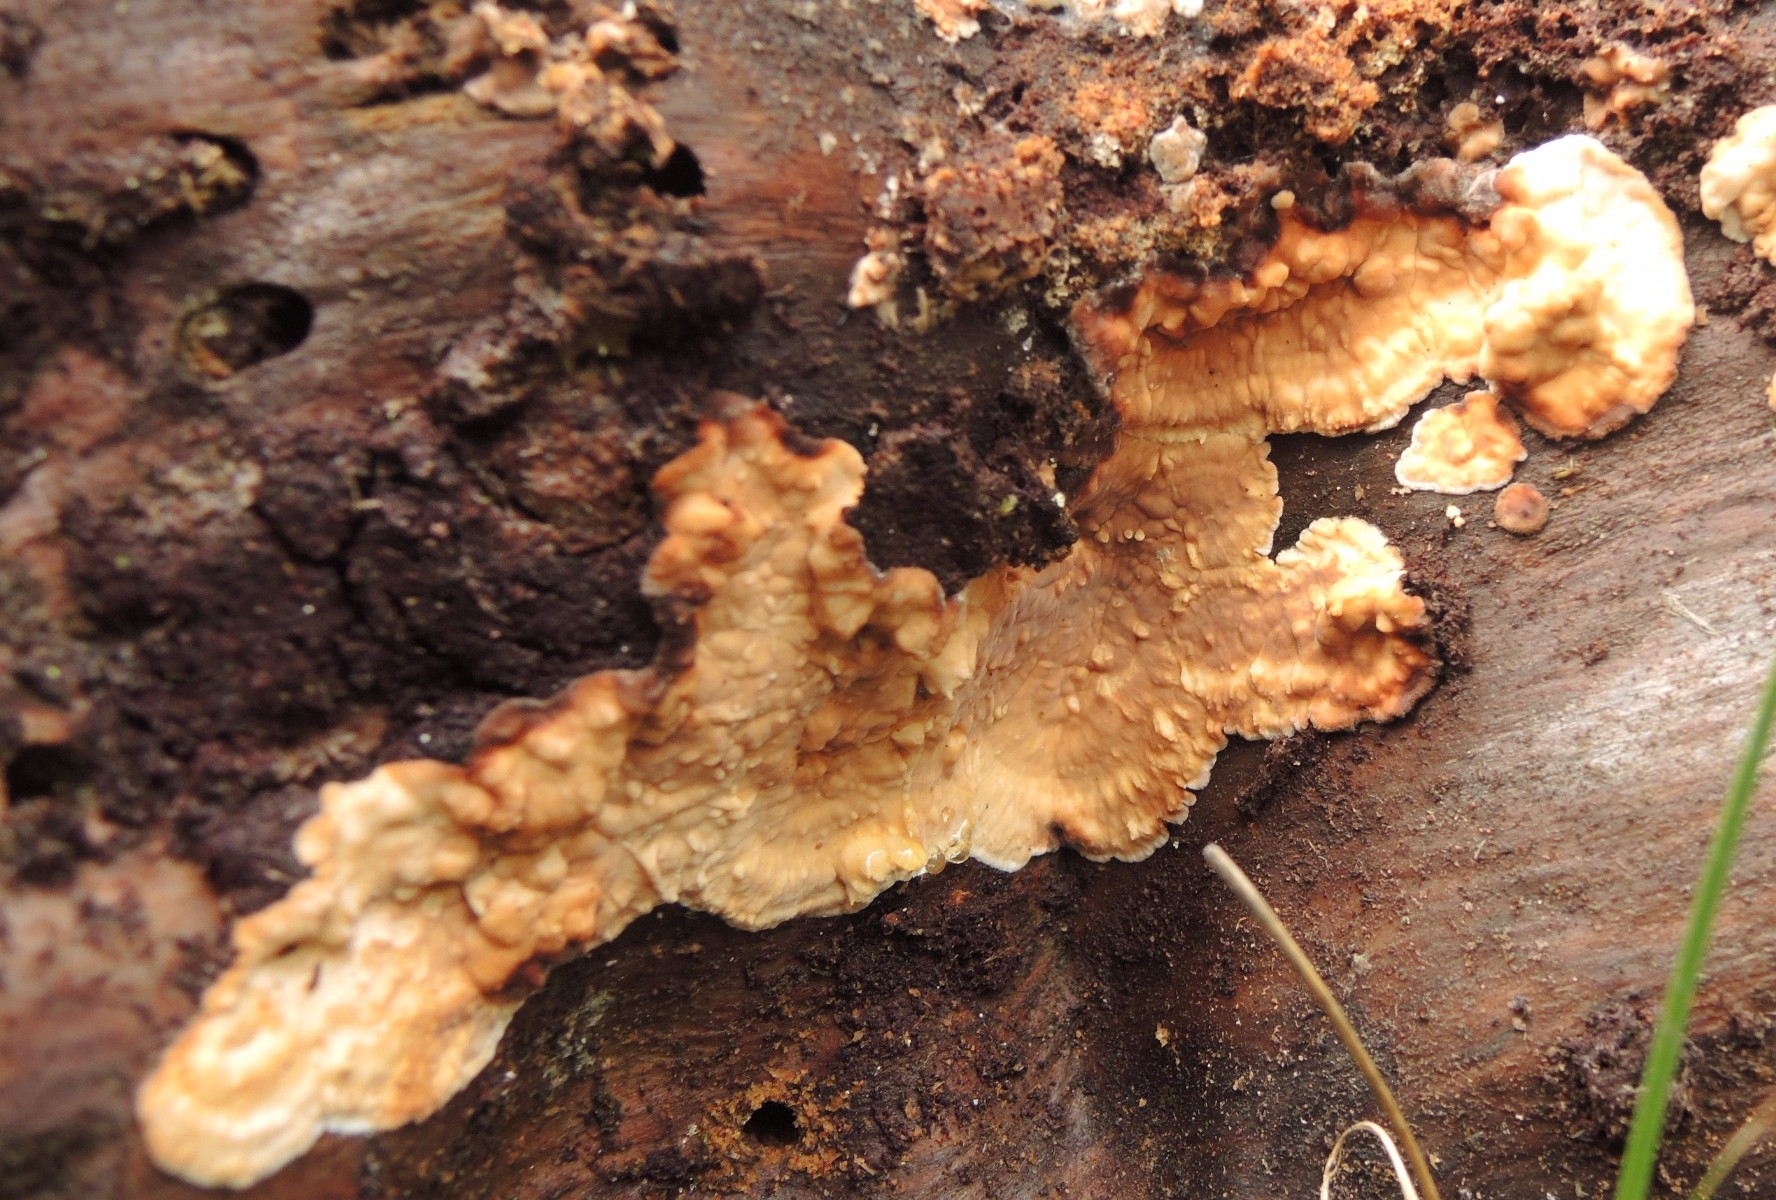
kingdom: Fungi
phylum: Basidiomycota
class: Agaricomycetes
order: Polyporales
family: Dacryobolaceae
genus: Dacryobolus
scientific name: Dacryobolus karstenii
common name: glat vulkanskorpe
